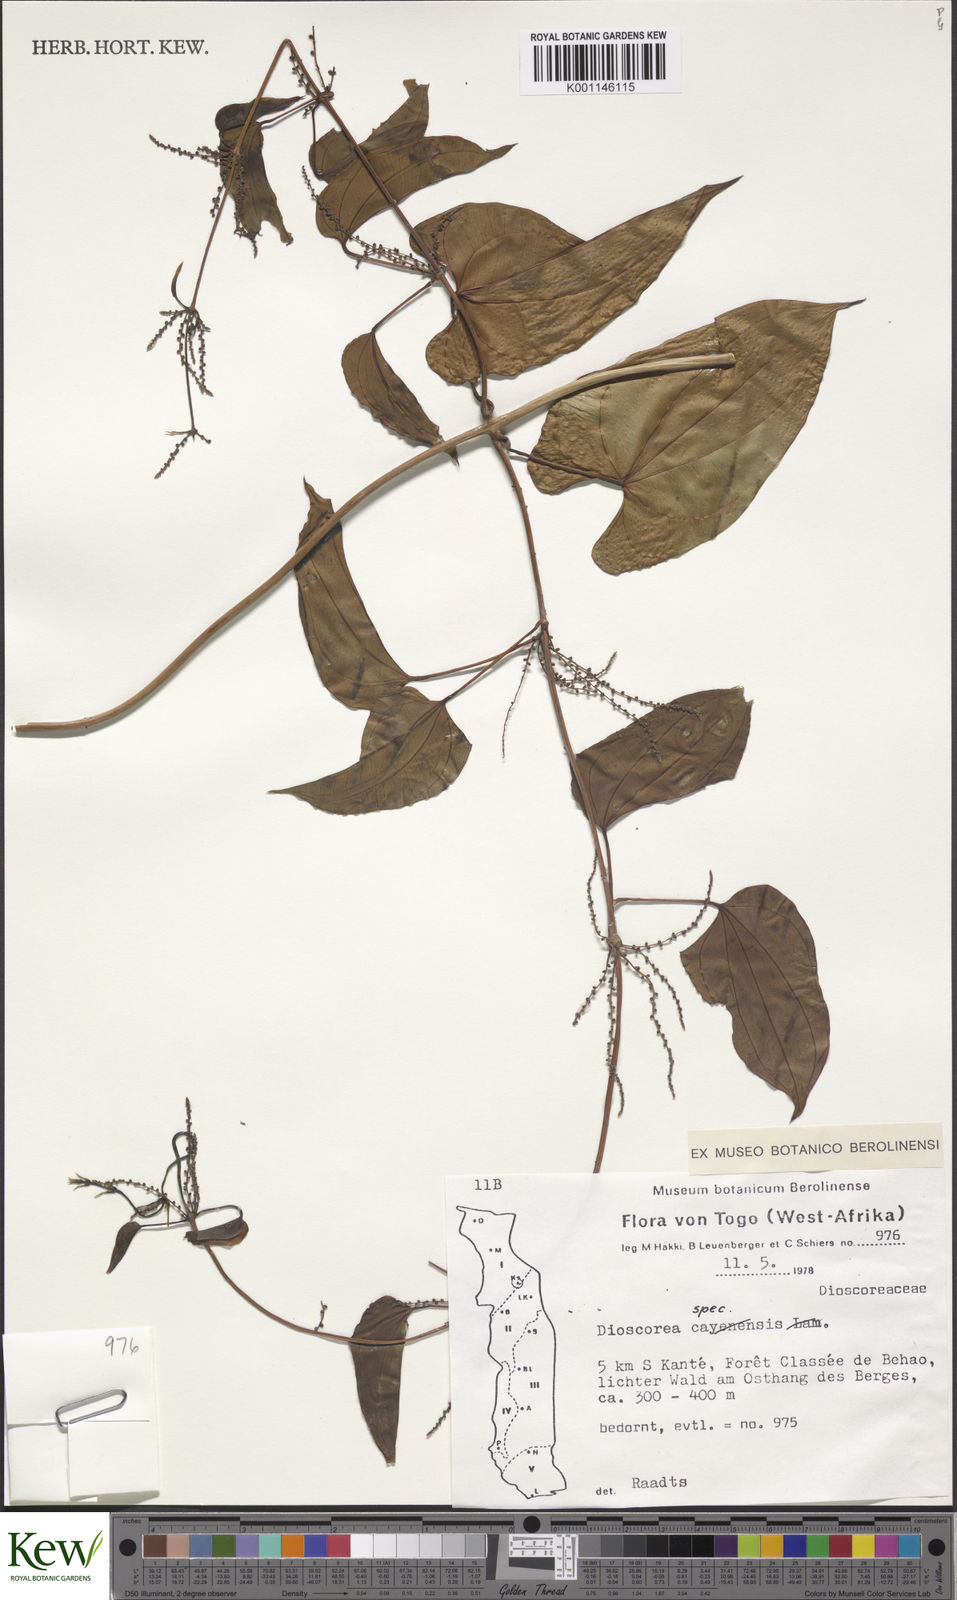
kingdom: Plantae
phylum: Tracheophyta
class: Liliopsida
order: Dioscoreales
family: Dioscoreaceae
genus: Dioscorea
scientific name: Dioscorea
